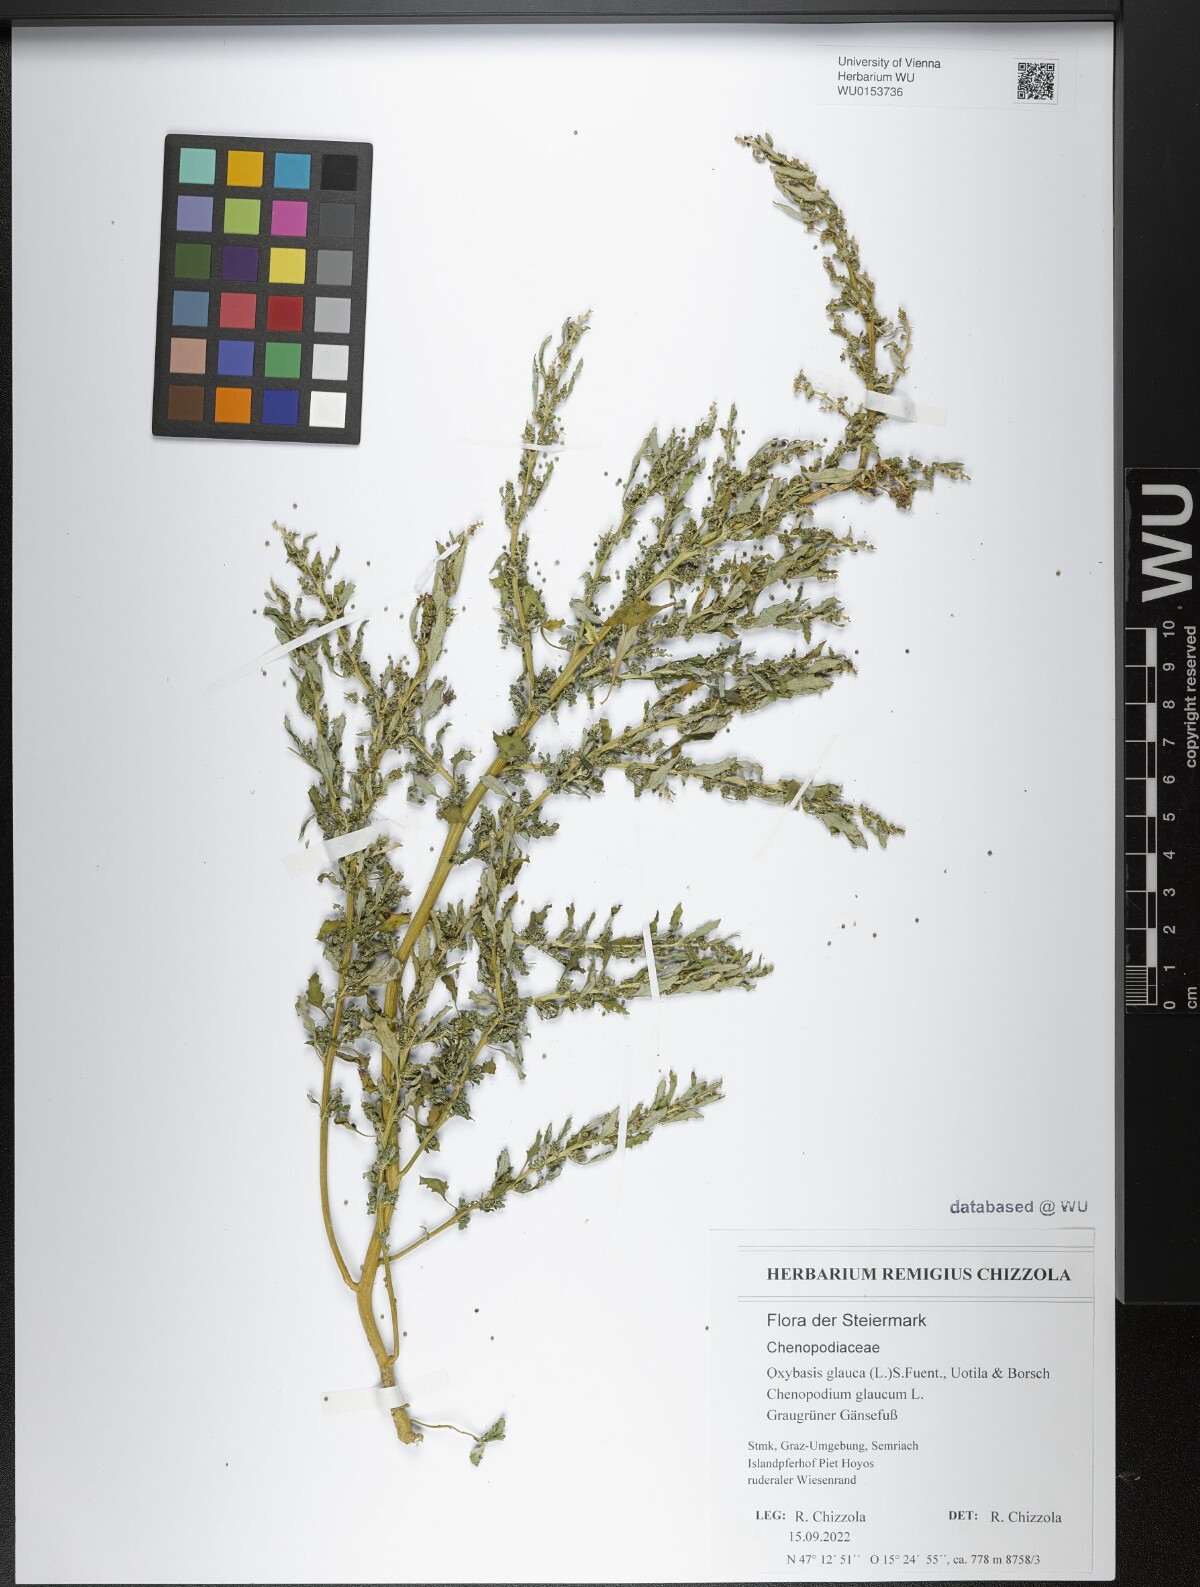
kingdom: Plantae
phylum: Tracheophyta
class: Magnoliopsida
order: Caryophyllales
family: Amaranthaceae
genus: Oxybasis
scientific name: Oxybasis glauca
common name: Glaucous goosefoot
